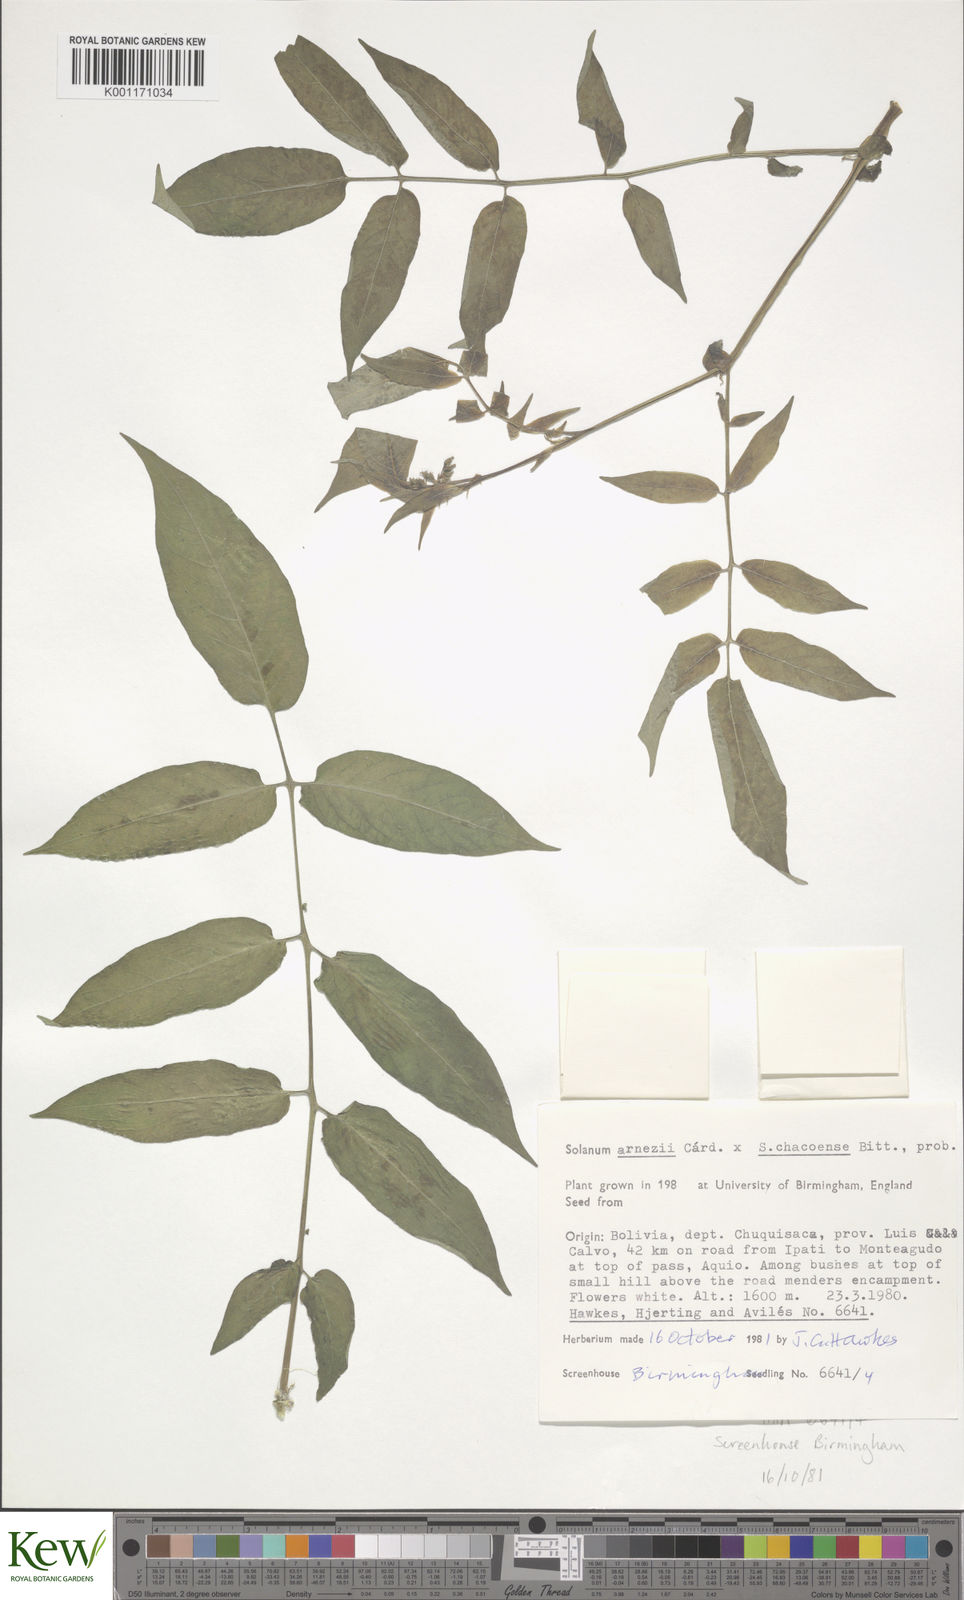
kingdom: Plantae
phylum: Tracheophyta
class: Magnoliopsida
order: Solanales
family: Solanaceae
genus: Solanum
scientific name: Solanum
